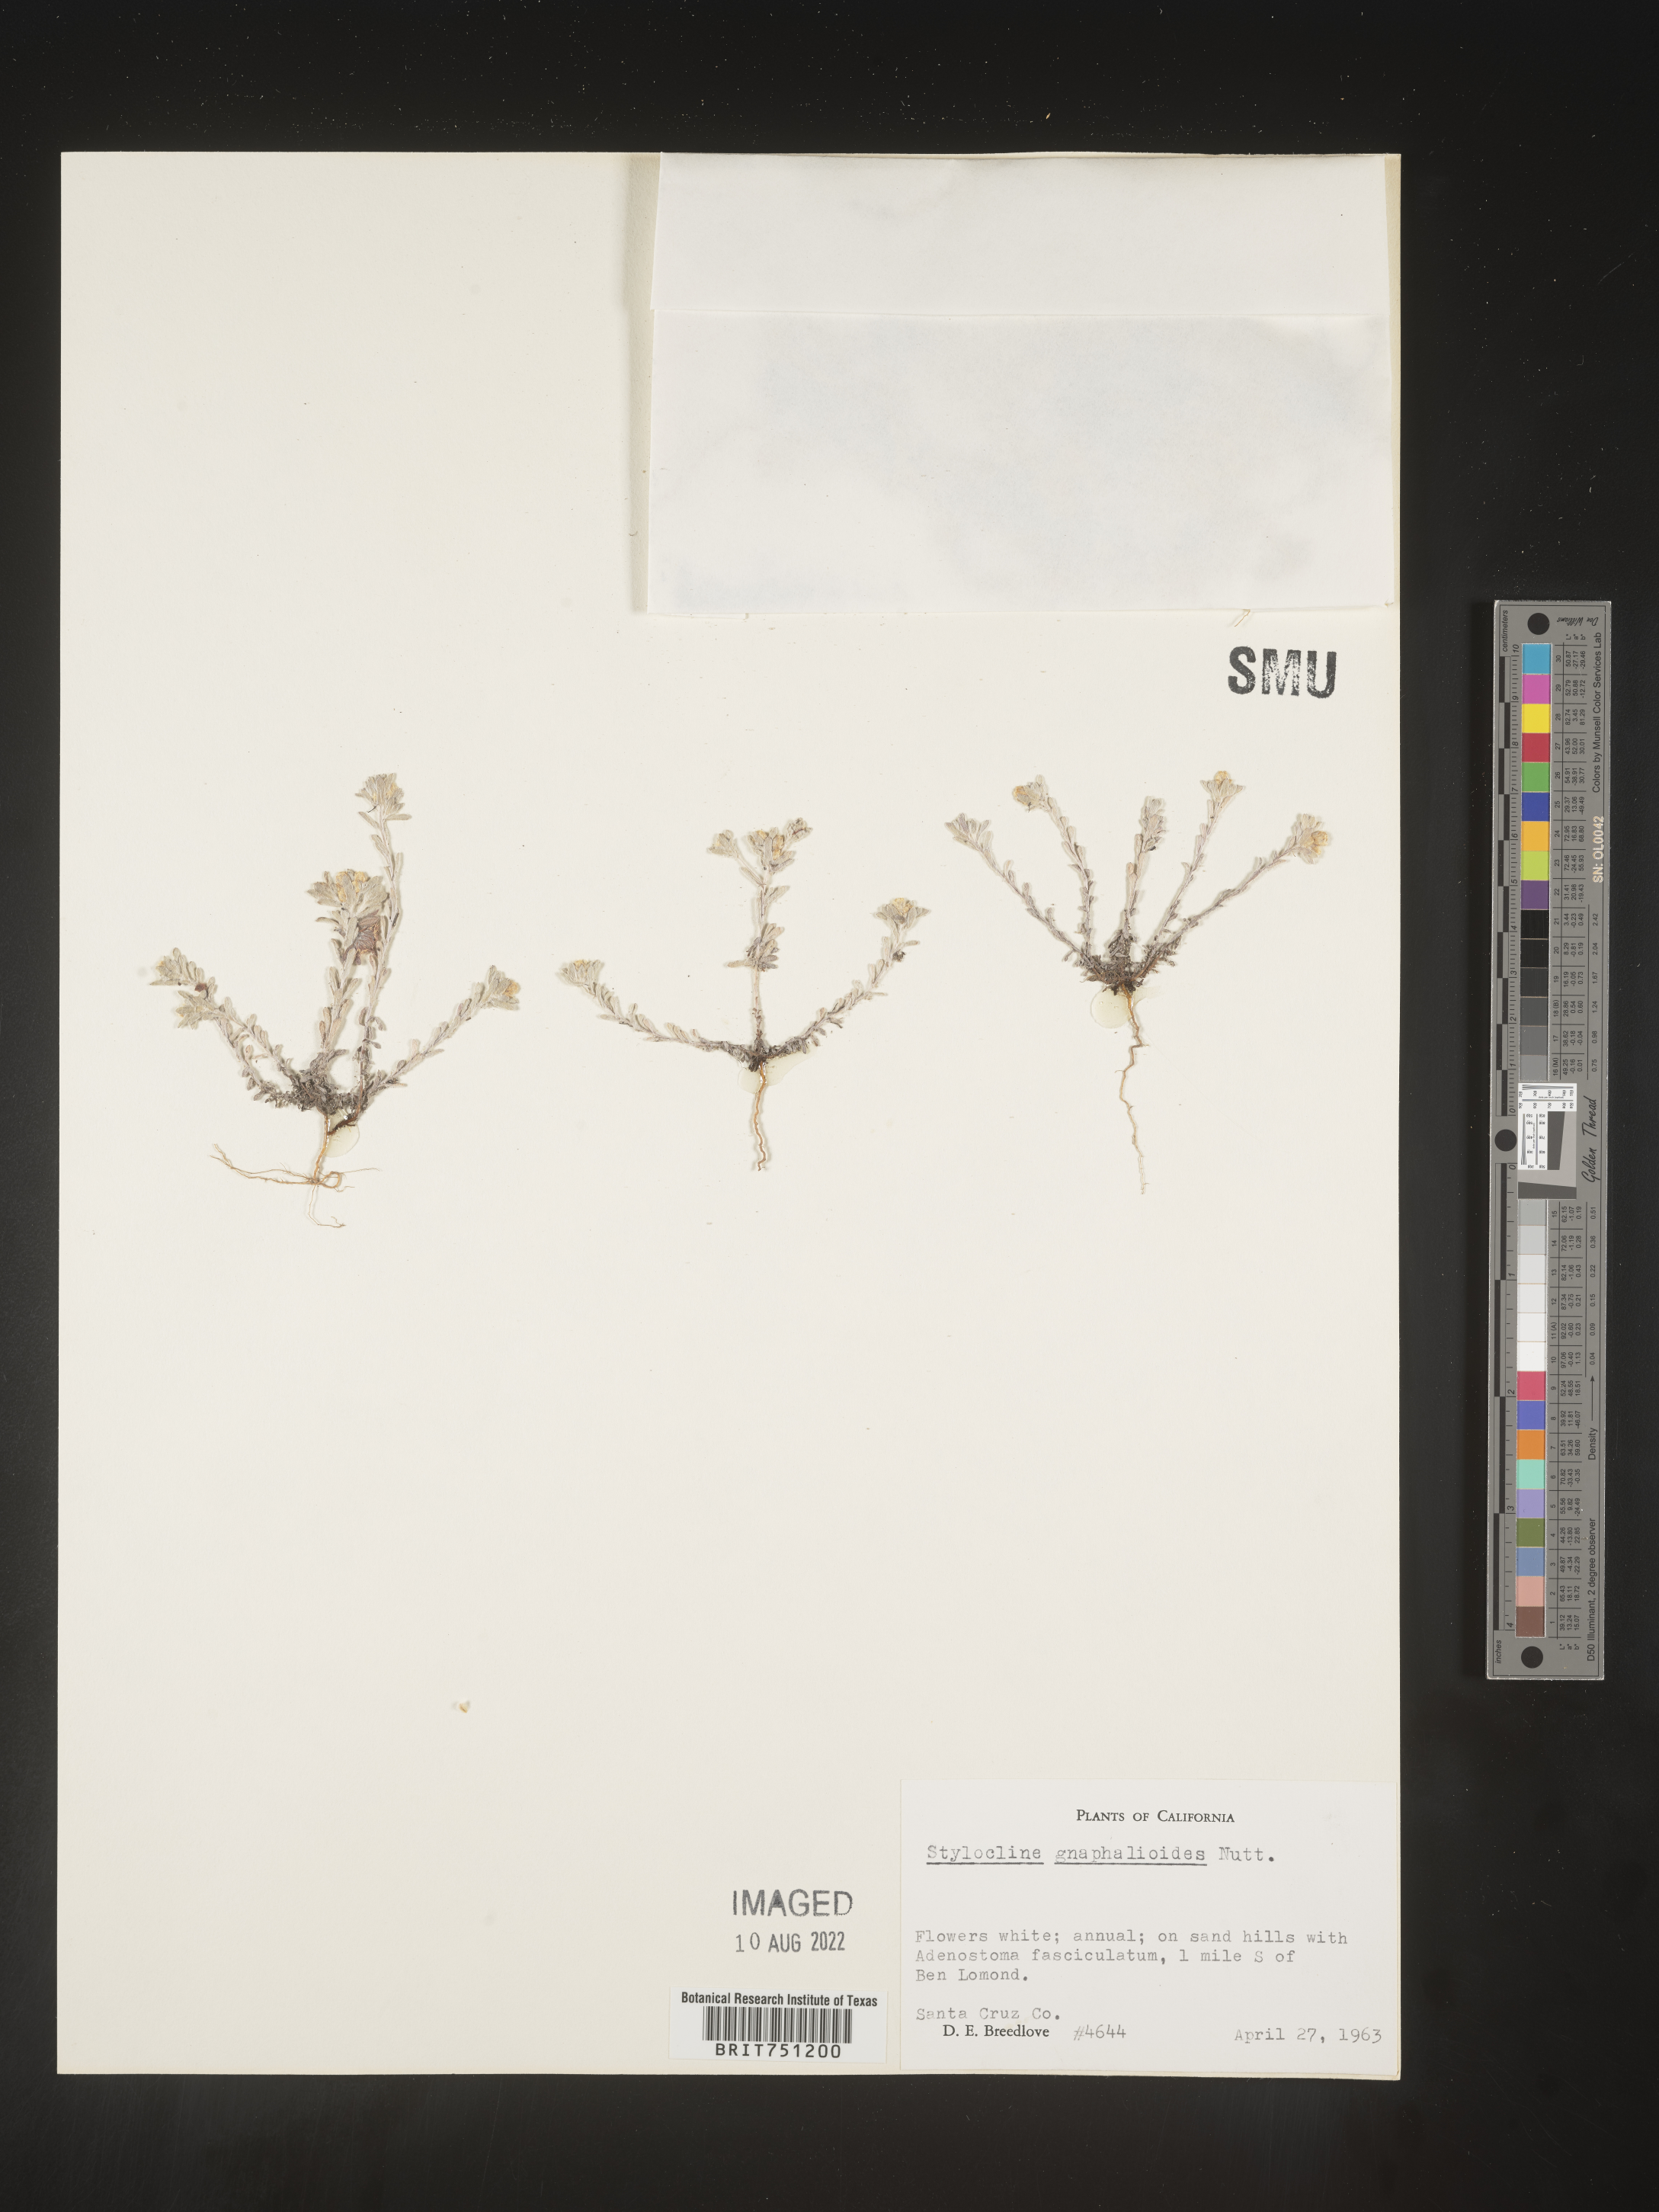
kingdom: Plantae
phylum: Tracheophyta
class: Magnoliopsida
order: Asterales
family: Asteraceae
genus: Stylocline
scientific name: Stylocline
